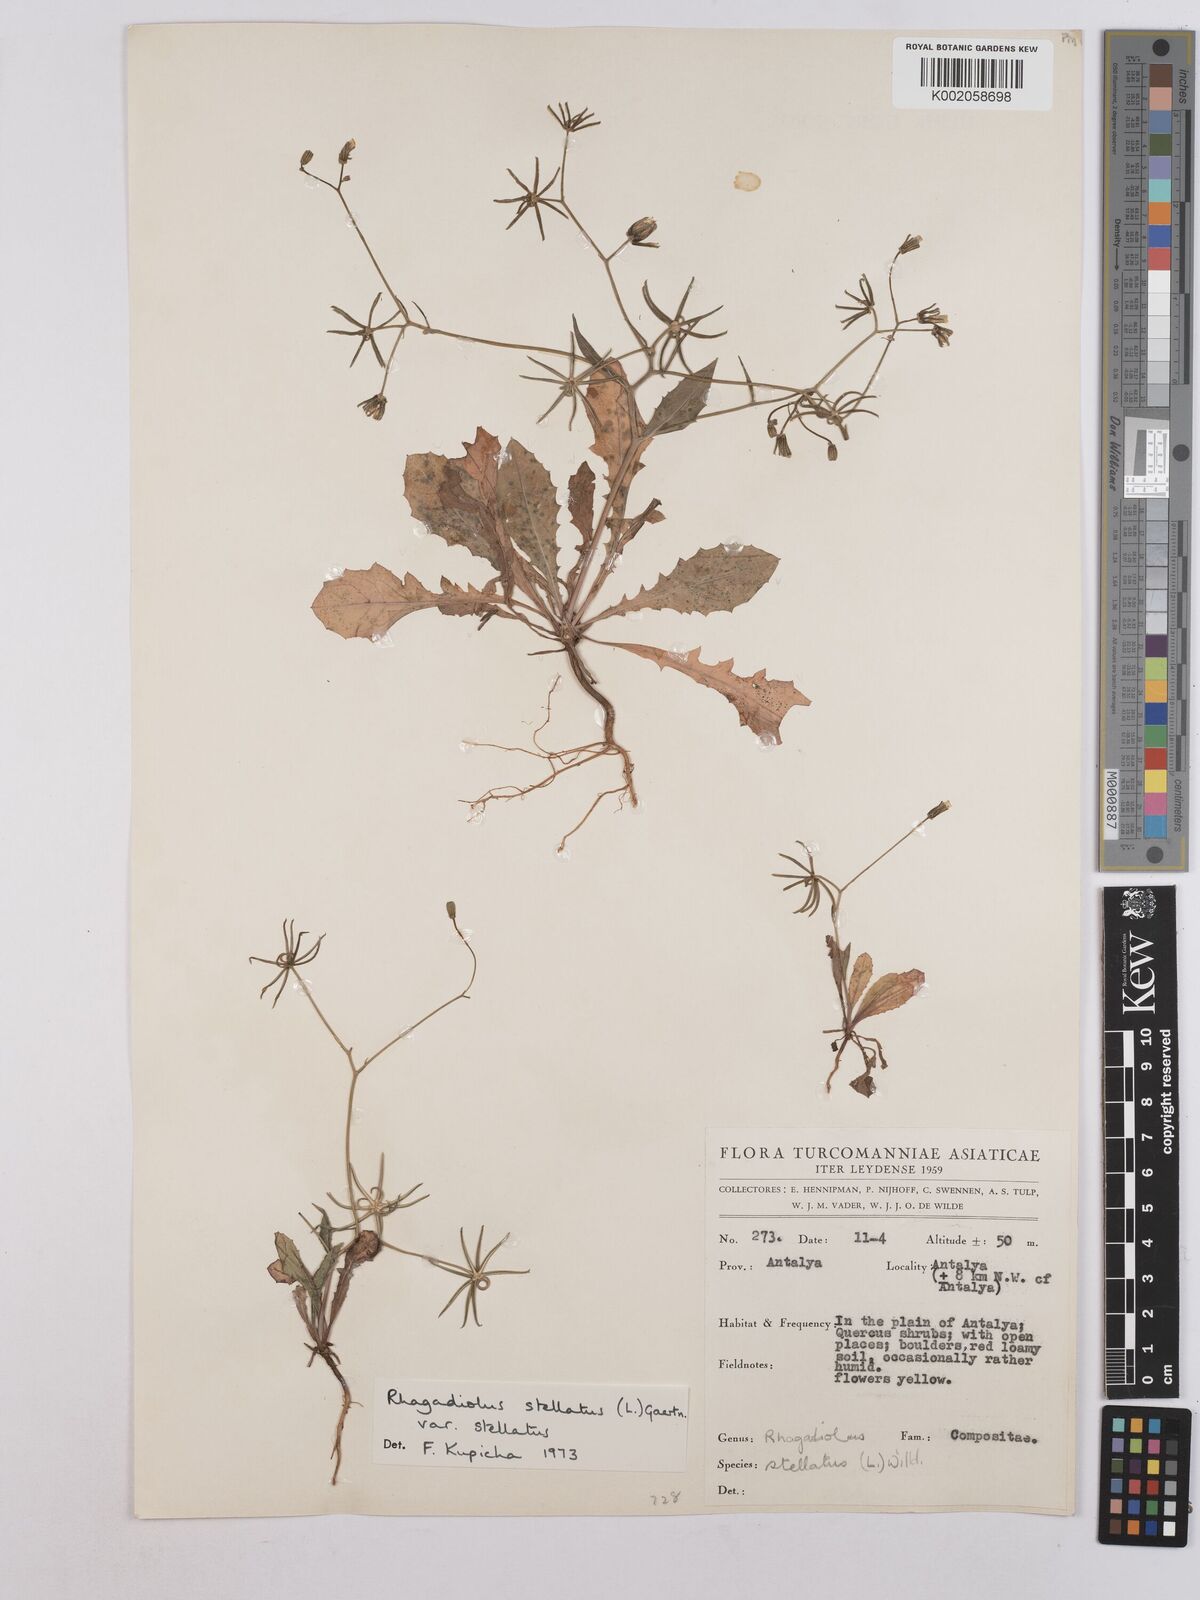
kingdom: Plantae
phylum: Tracheophyta
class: Magnoliopsida
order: Asterales
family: Asteraceae
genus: Rhagadiolus
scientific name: Rhagadiolus stellatus
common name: Star hawkbit
